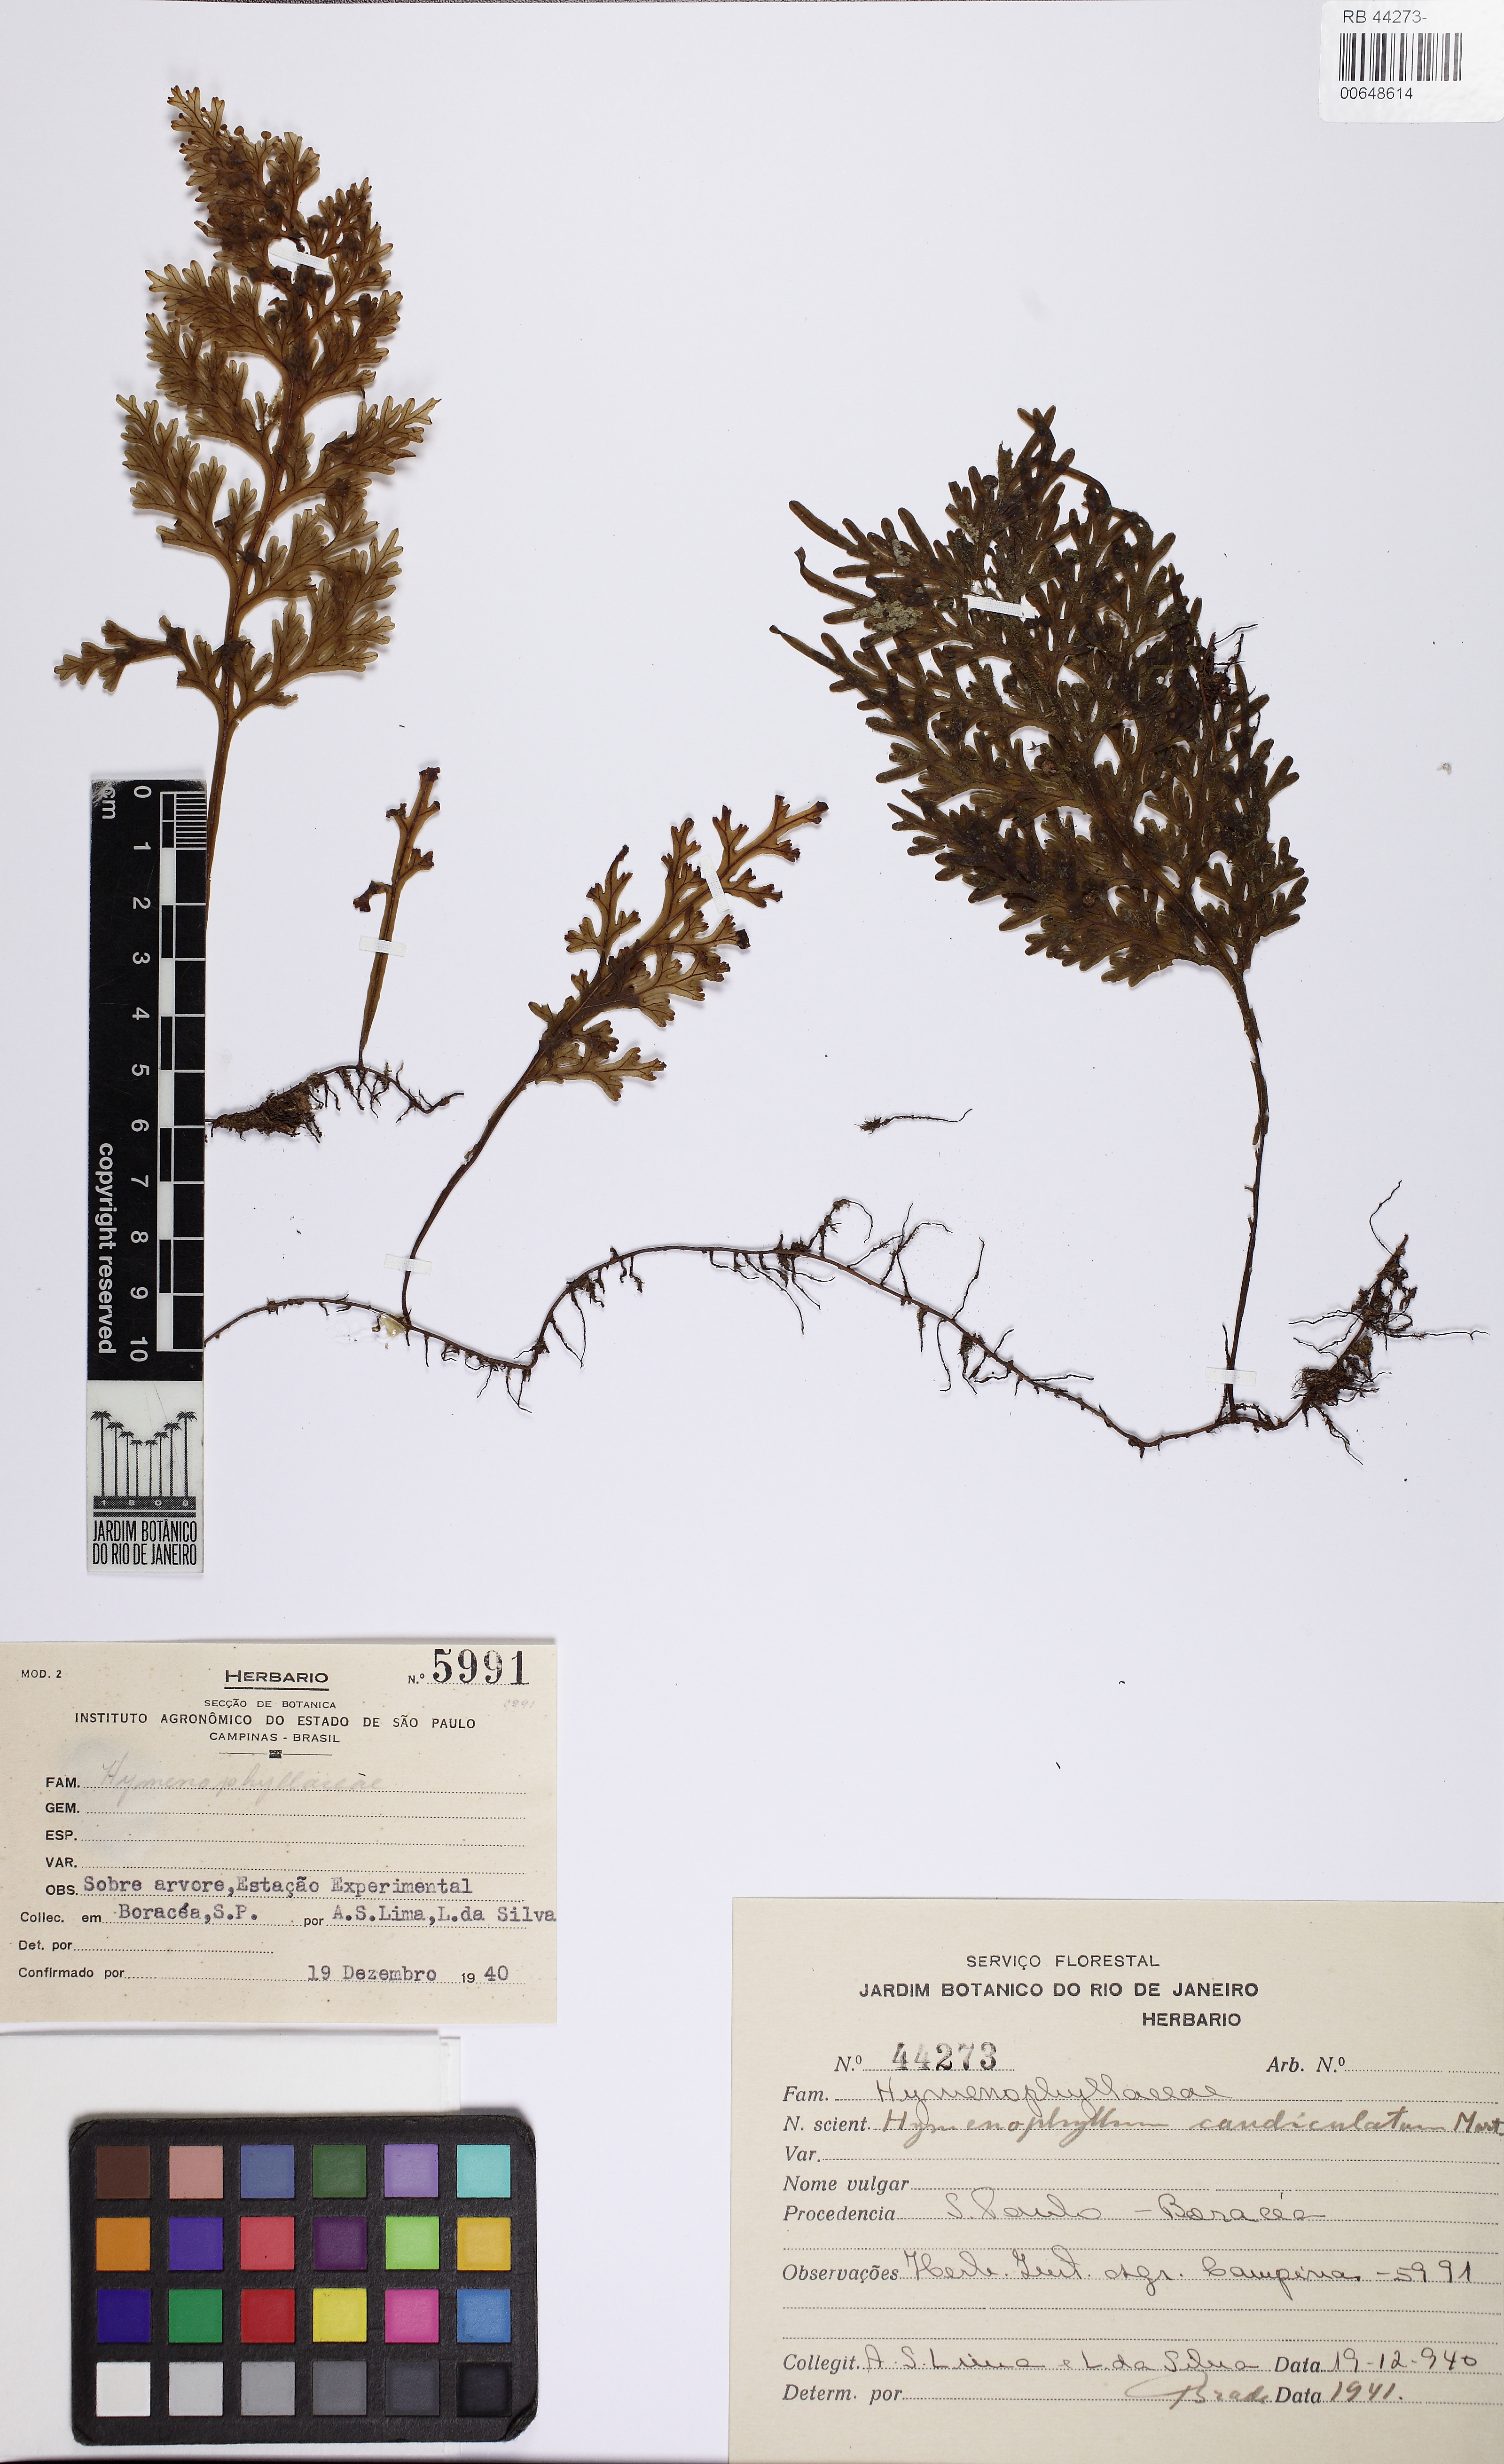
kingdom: Plantae
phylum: Tracheophyta
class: Polypodiopsida
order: Hymenophyllales
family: Hymenophyllaceae
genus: Hymenophyllum
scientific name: Hymenophyllum caudiculatum
